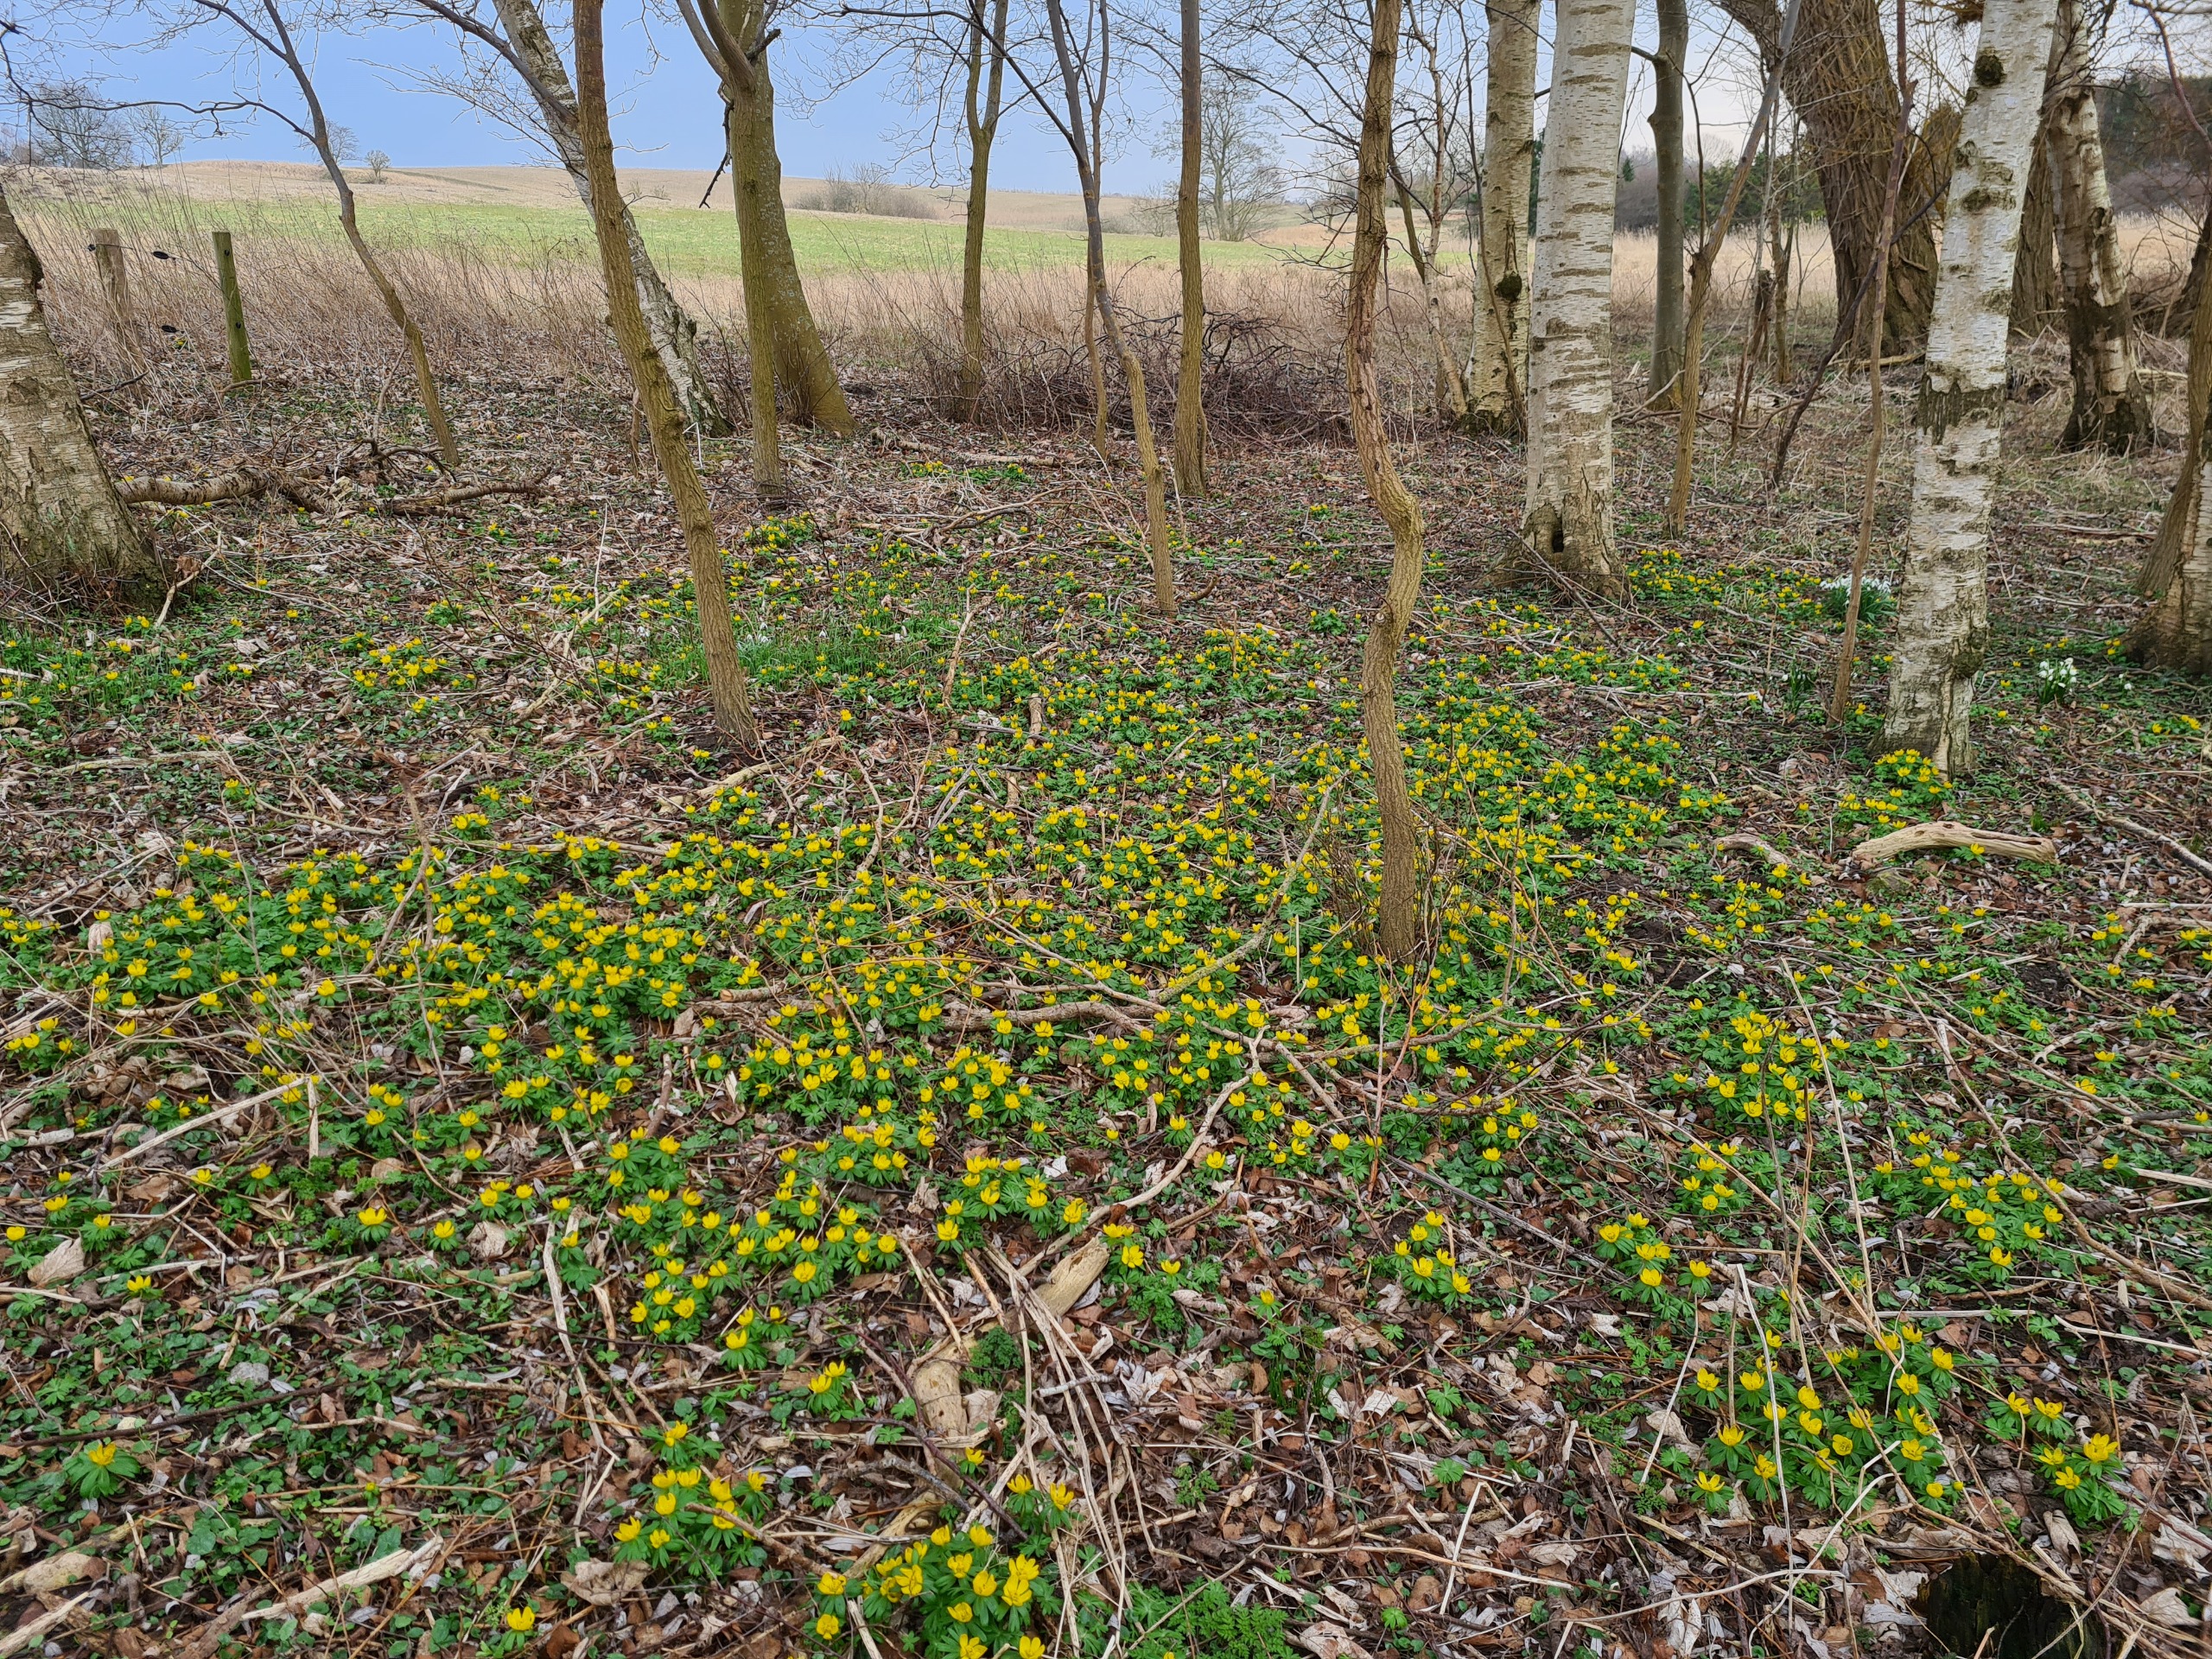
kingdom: Plantae
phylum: Tracheophyta
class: Magnoliopsida
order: Ranunculales
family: Ranunculaceae
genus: Eranthis
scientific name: Eranthis hyemalis
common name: Erantis
